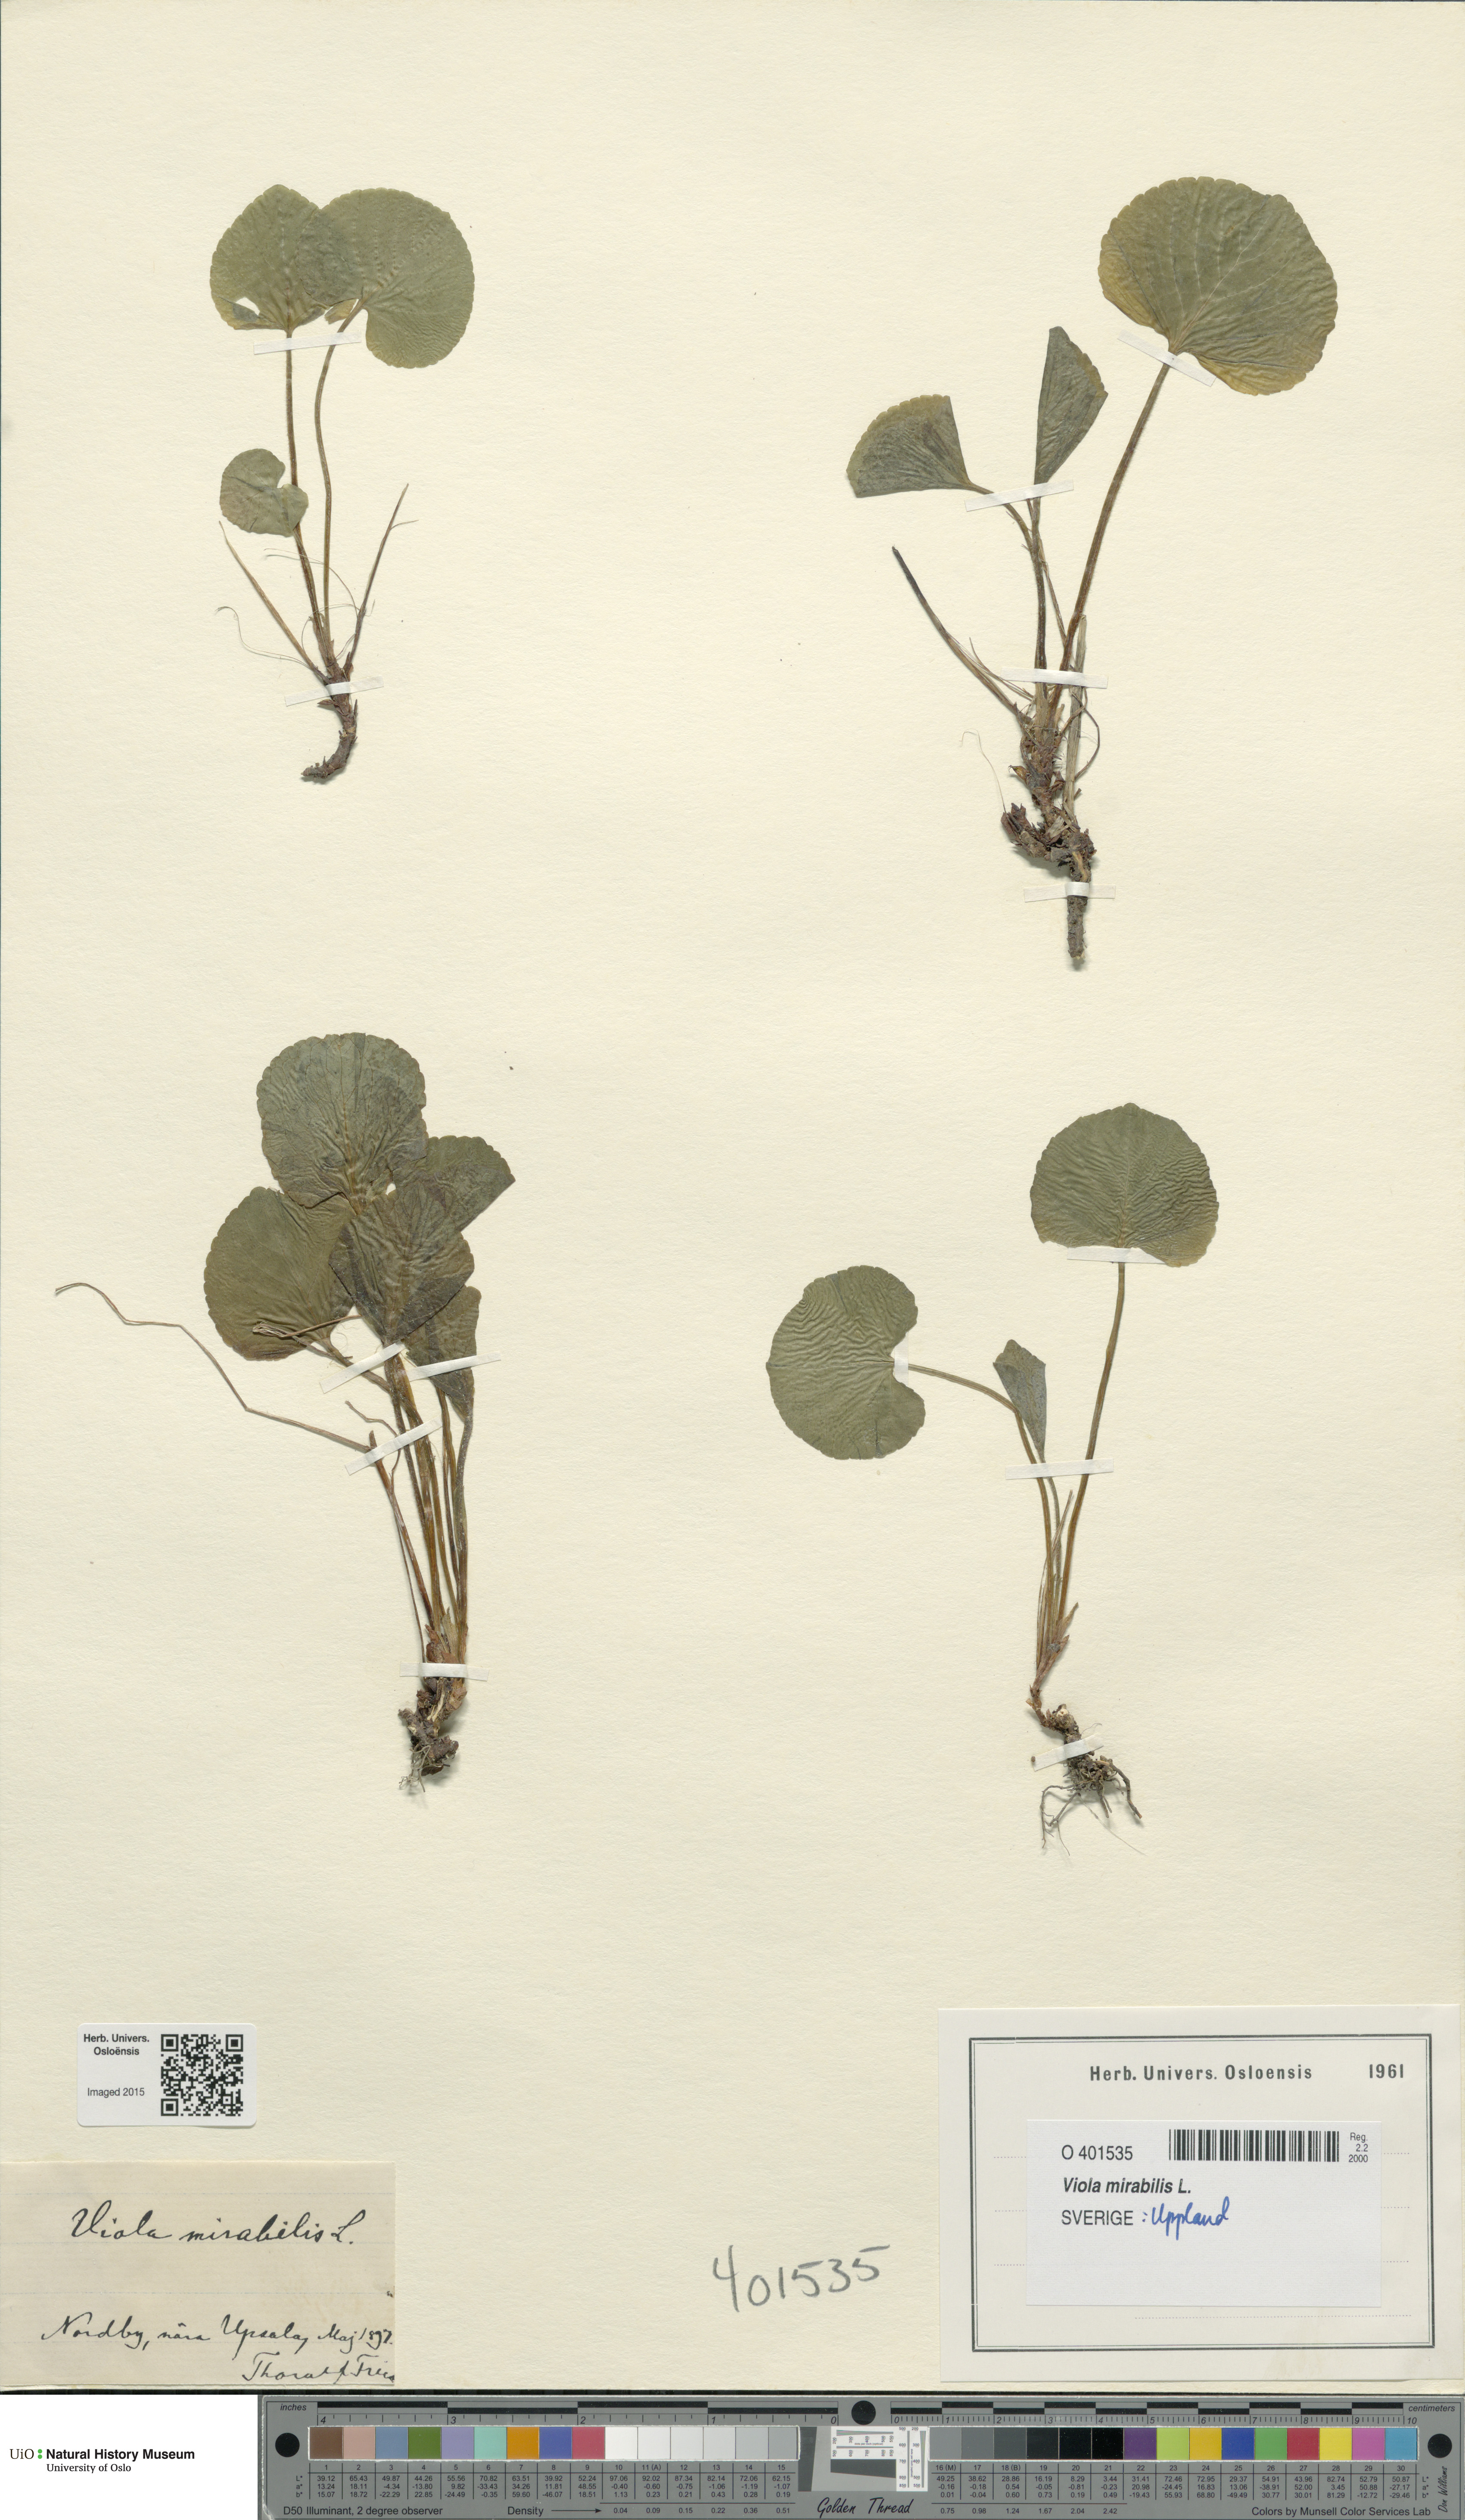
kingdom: Plantae
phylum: Tracheophyta
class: Magnoliopsida
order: Malpighiales
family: Violaceae
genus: Viola
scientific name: Viola mirabilis
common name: Wonder violet
